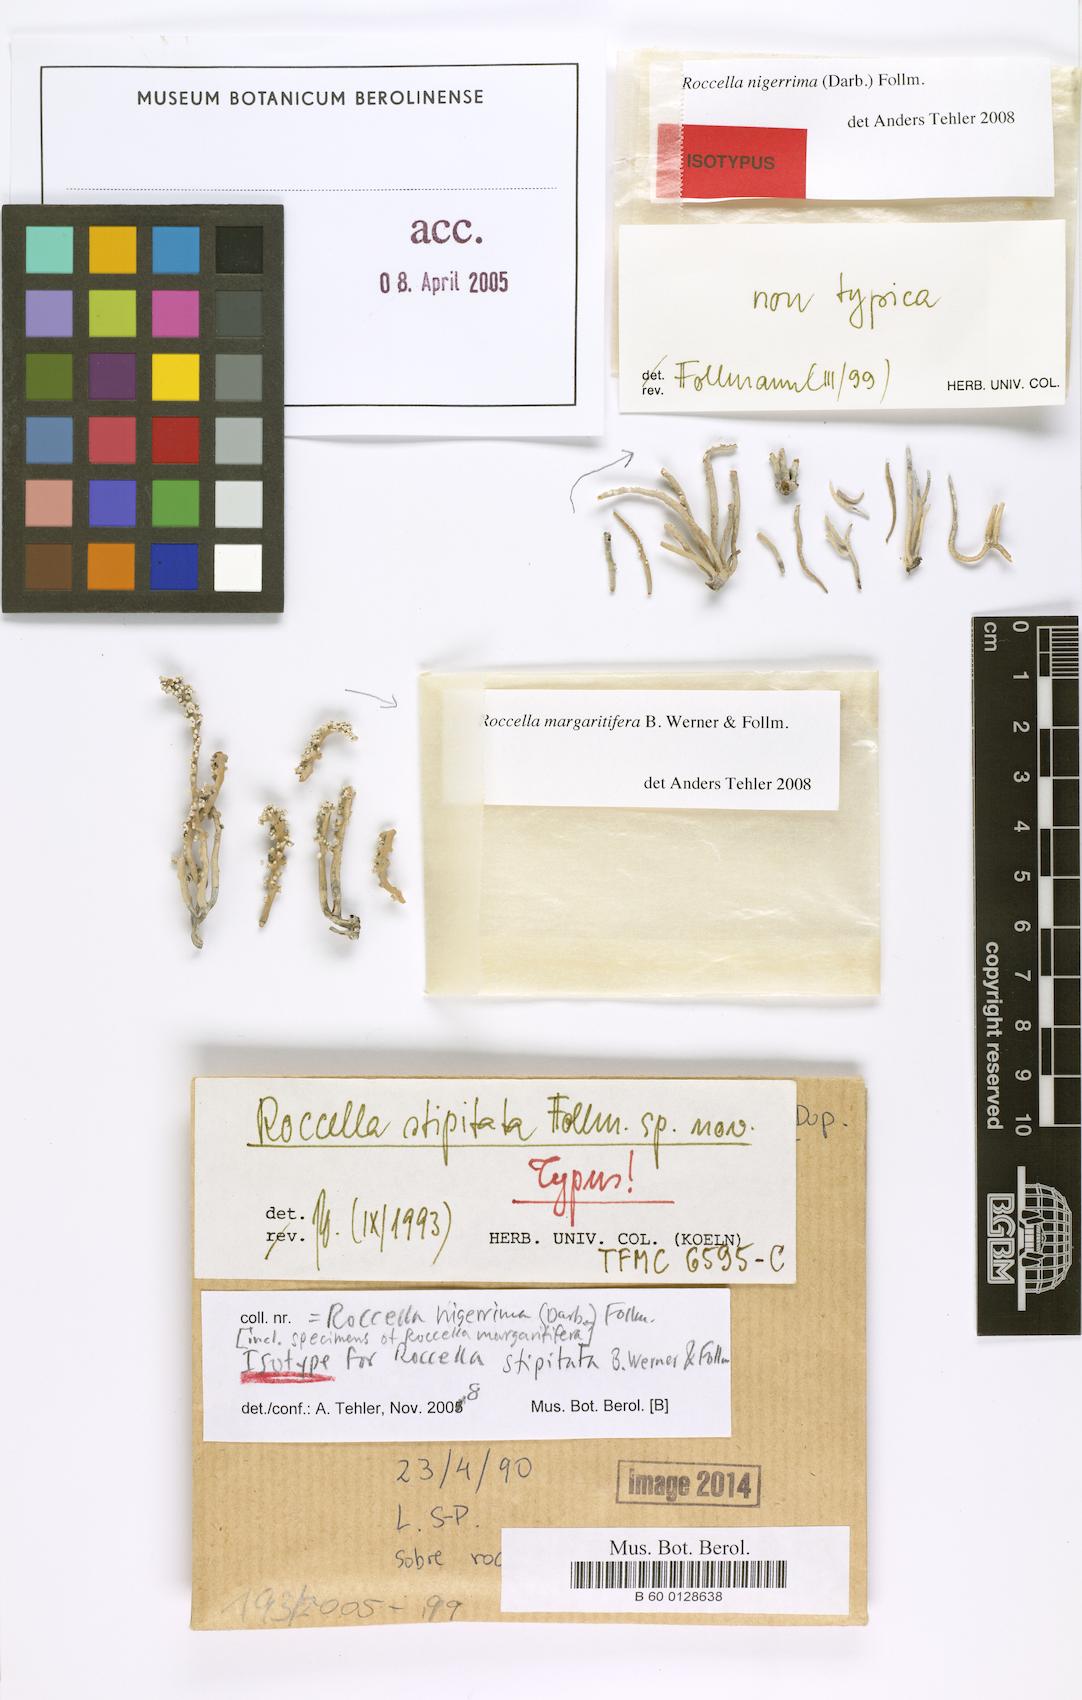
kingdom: Fungi
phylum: Ascomycota
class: Arthoniomycetes
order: Arthoniales
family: Roccellaceae
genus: Roccella
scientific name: Roccella stipitata
